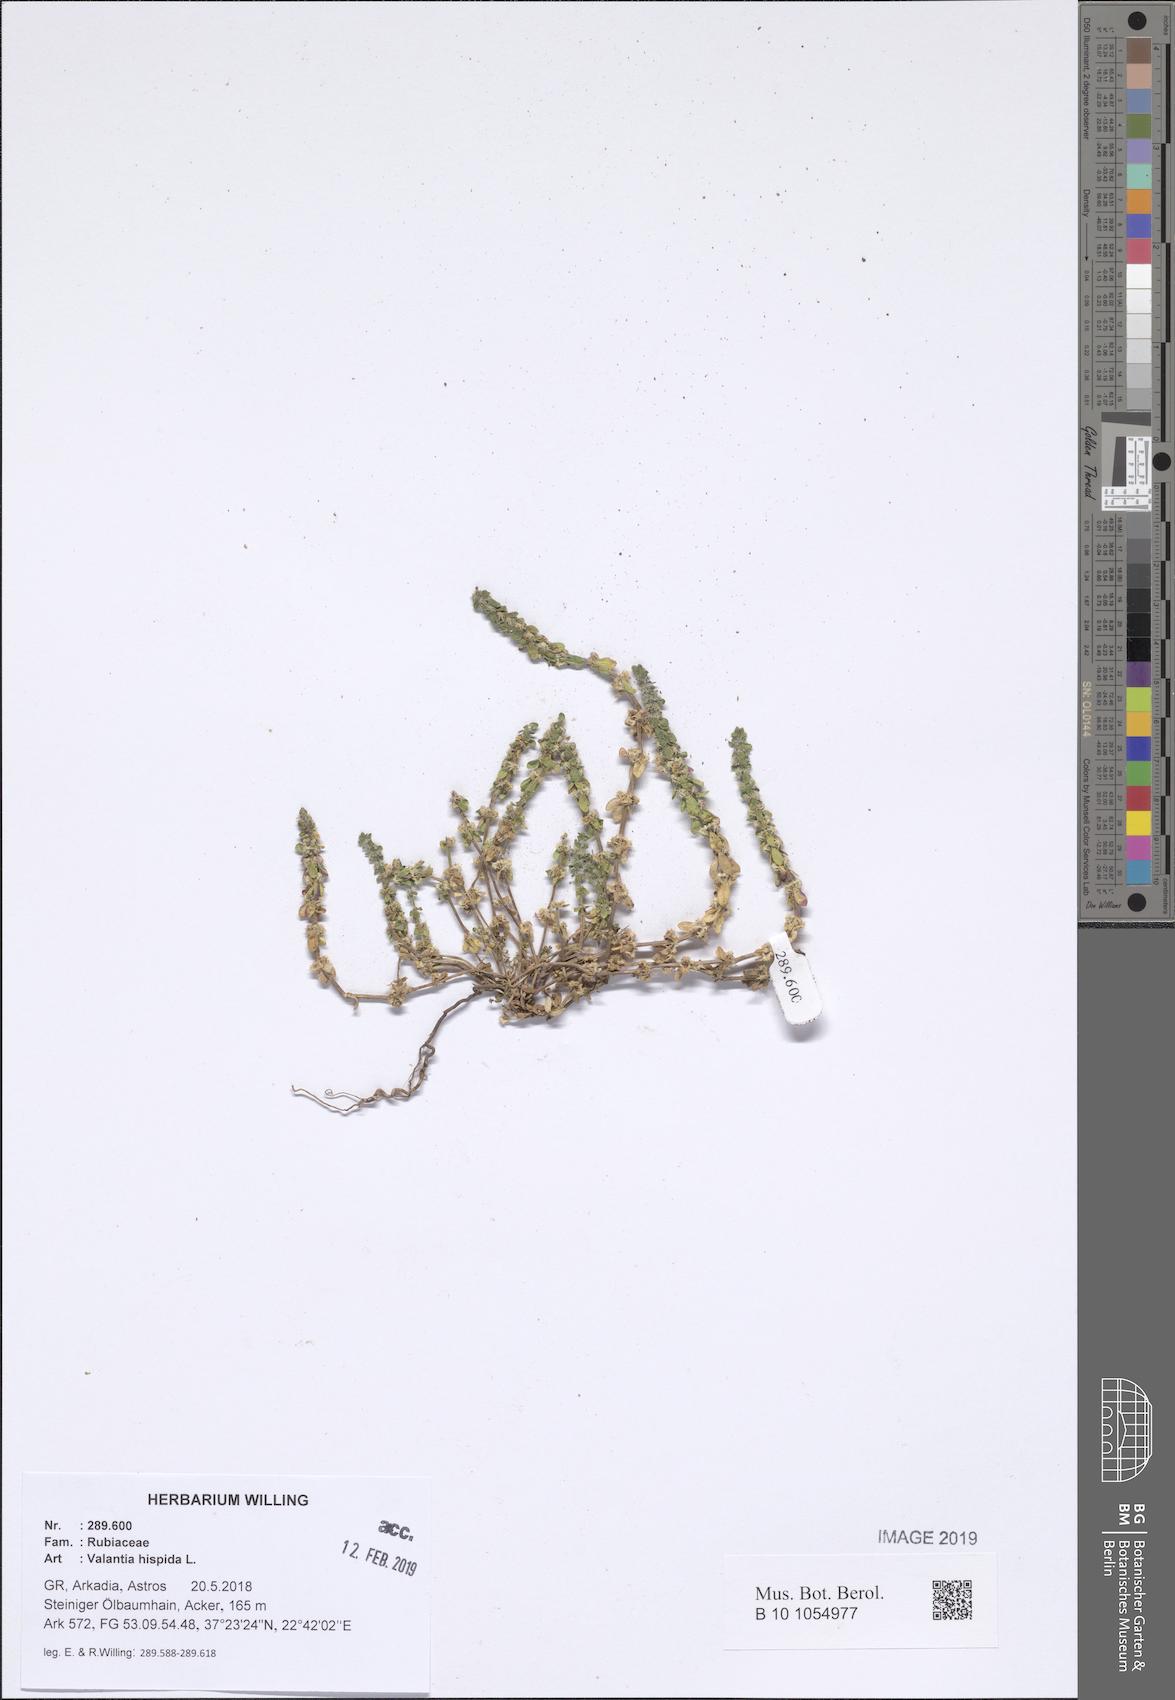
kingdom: Plantae
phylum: Tracheophyta
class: Magnoliopsida
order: Gentianales
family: Rubiaceae
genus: Valantia
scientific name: Valantia hispida
